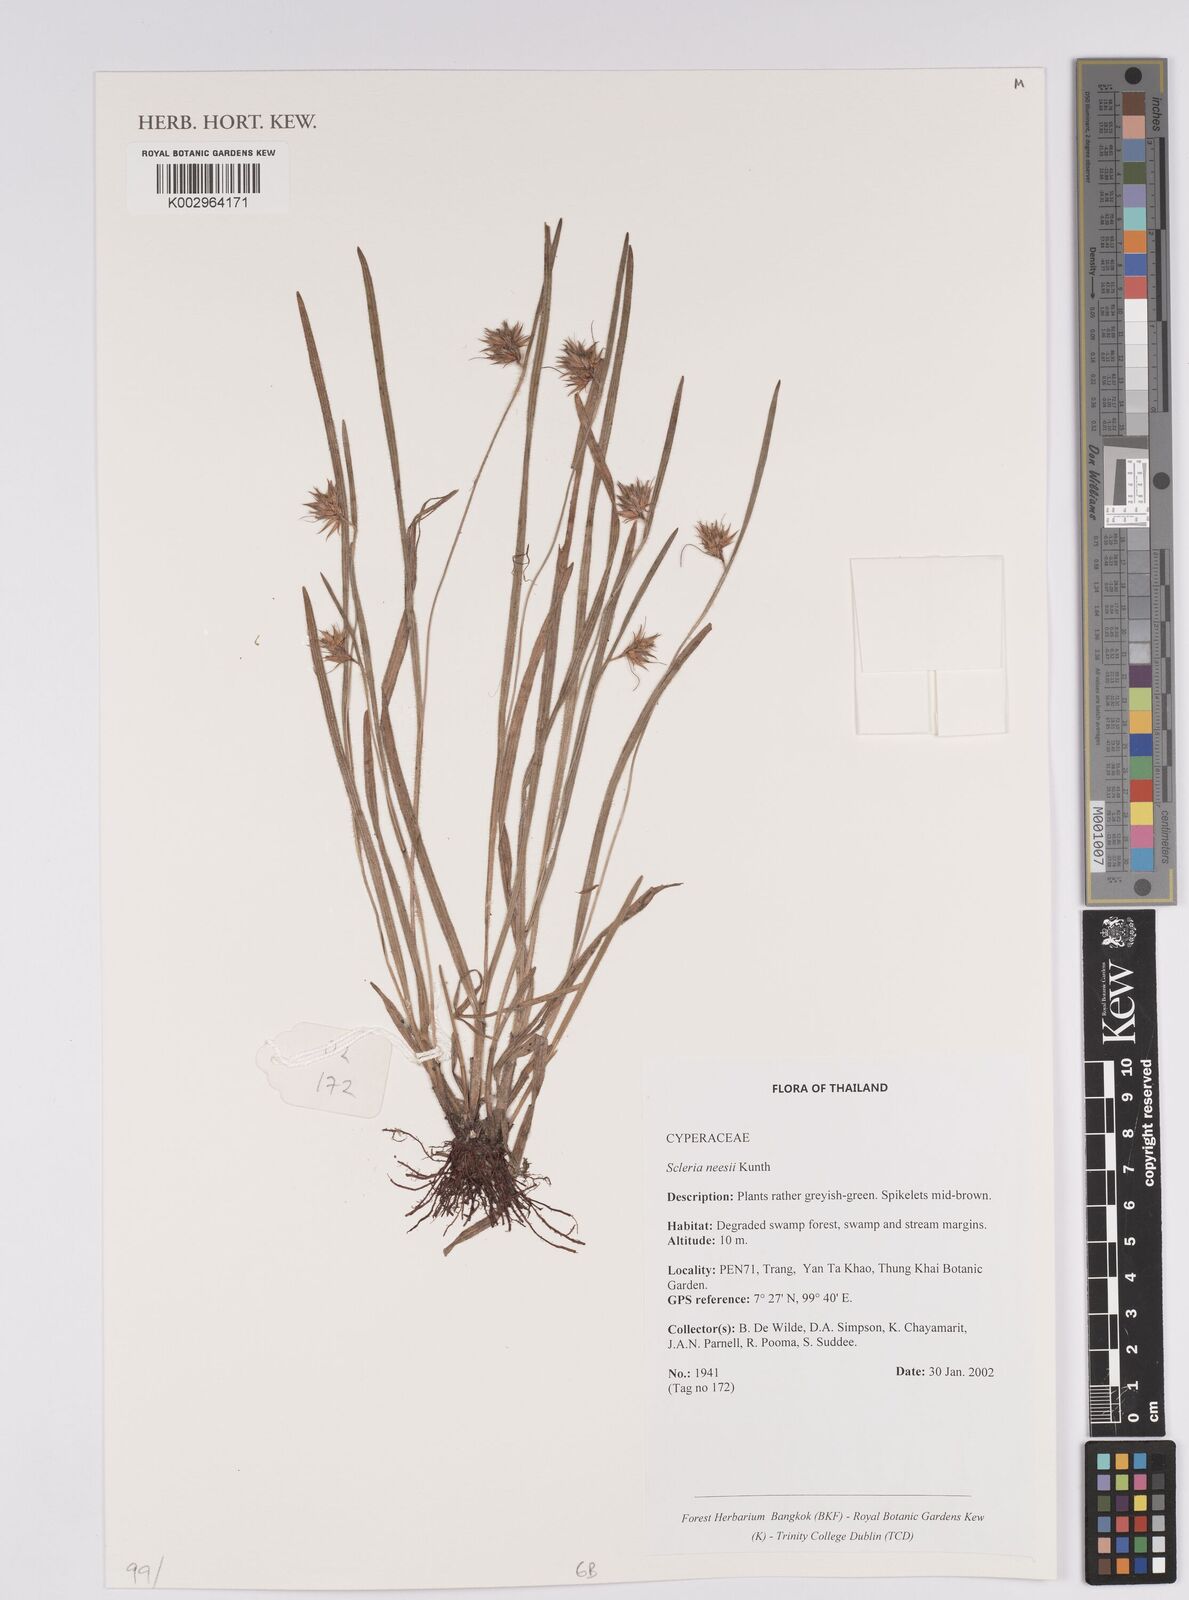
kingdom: Plantae
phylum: Tracheophyta
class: Liliopsida
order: Poales
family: Cyperaceae
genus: Scleria
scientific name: Scleria neesii
